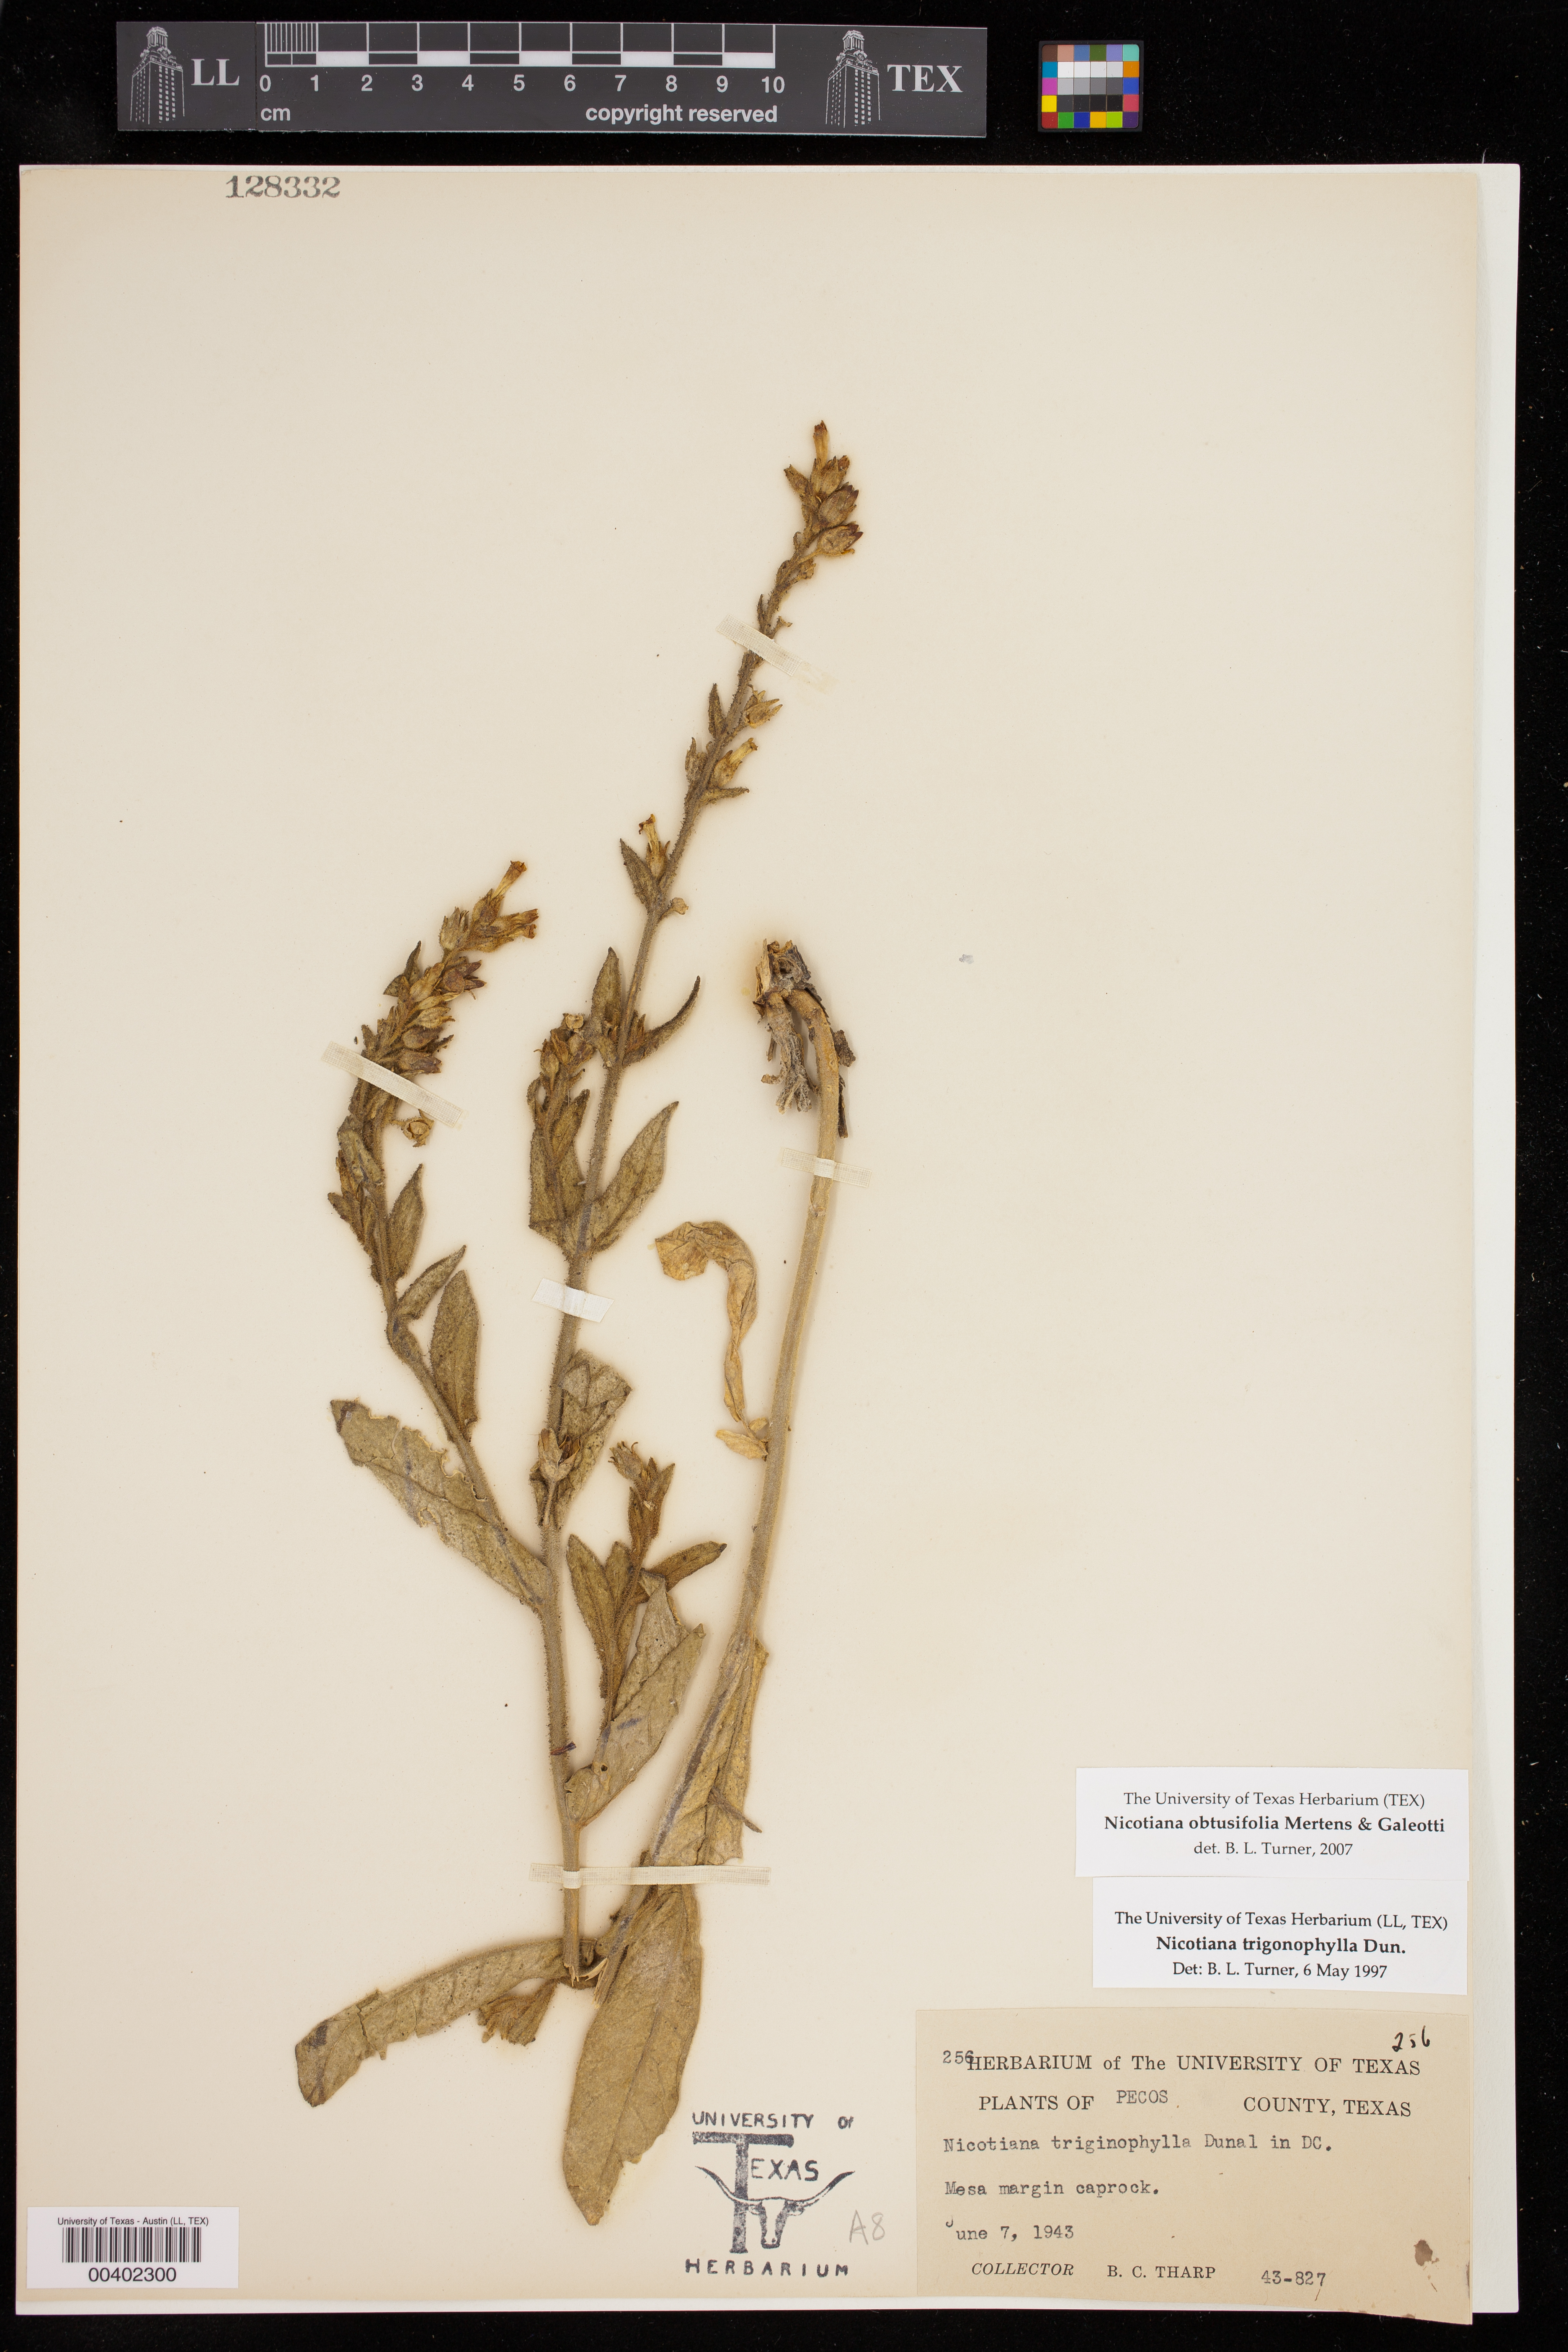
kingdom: Plantae
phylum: Tracheophyta
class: Magnoliopsida
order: Solanales
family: Solanaceae
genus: Nicotiana
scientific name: Nicotiana obtusifolia
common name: Desert tobacco
